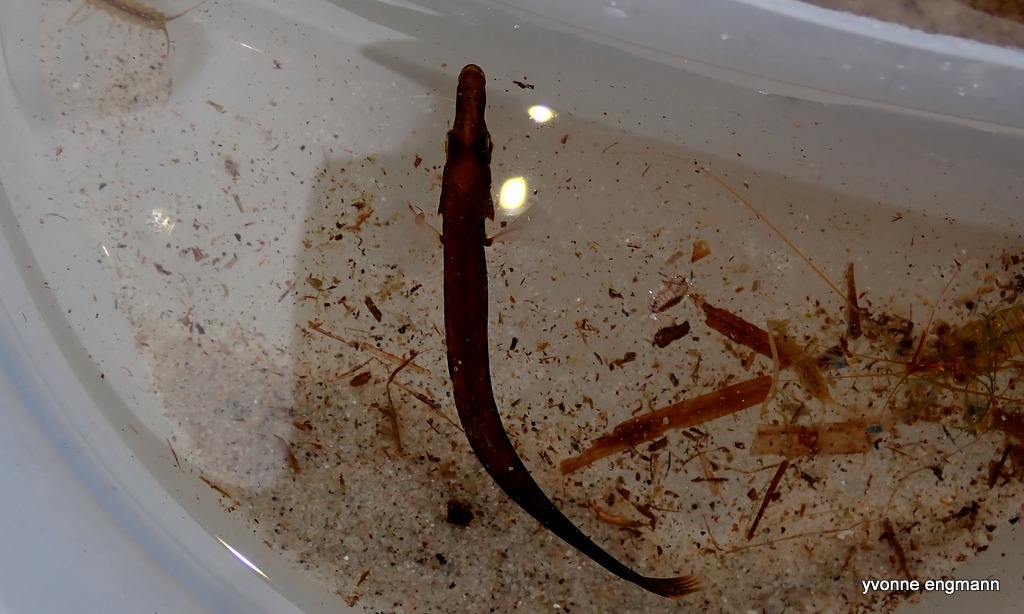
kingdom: Animalia
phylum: Chordata
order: Gasterosteiformes
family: Gasterosteidae
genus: Spinachia
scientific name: Spinachia spinachia
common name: Tangsnarre
